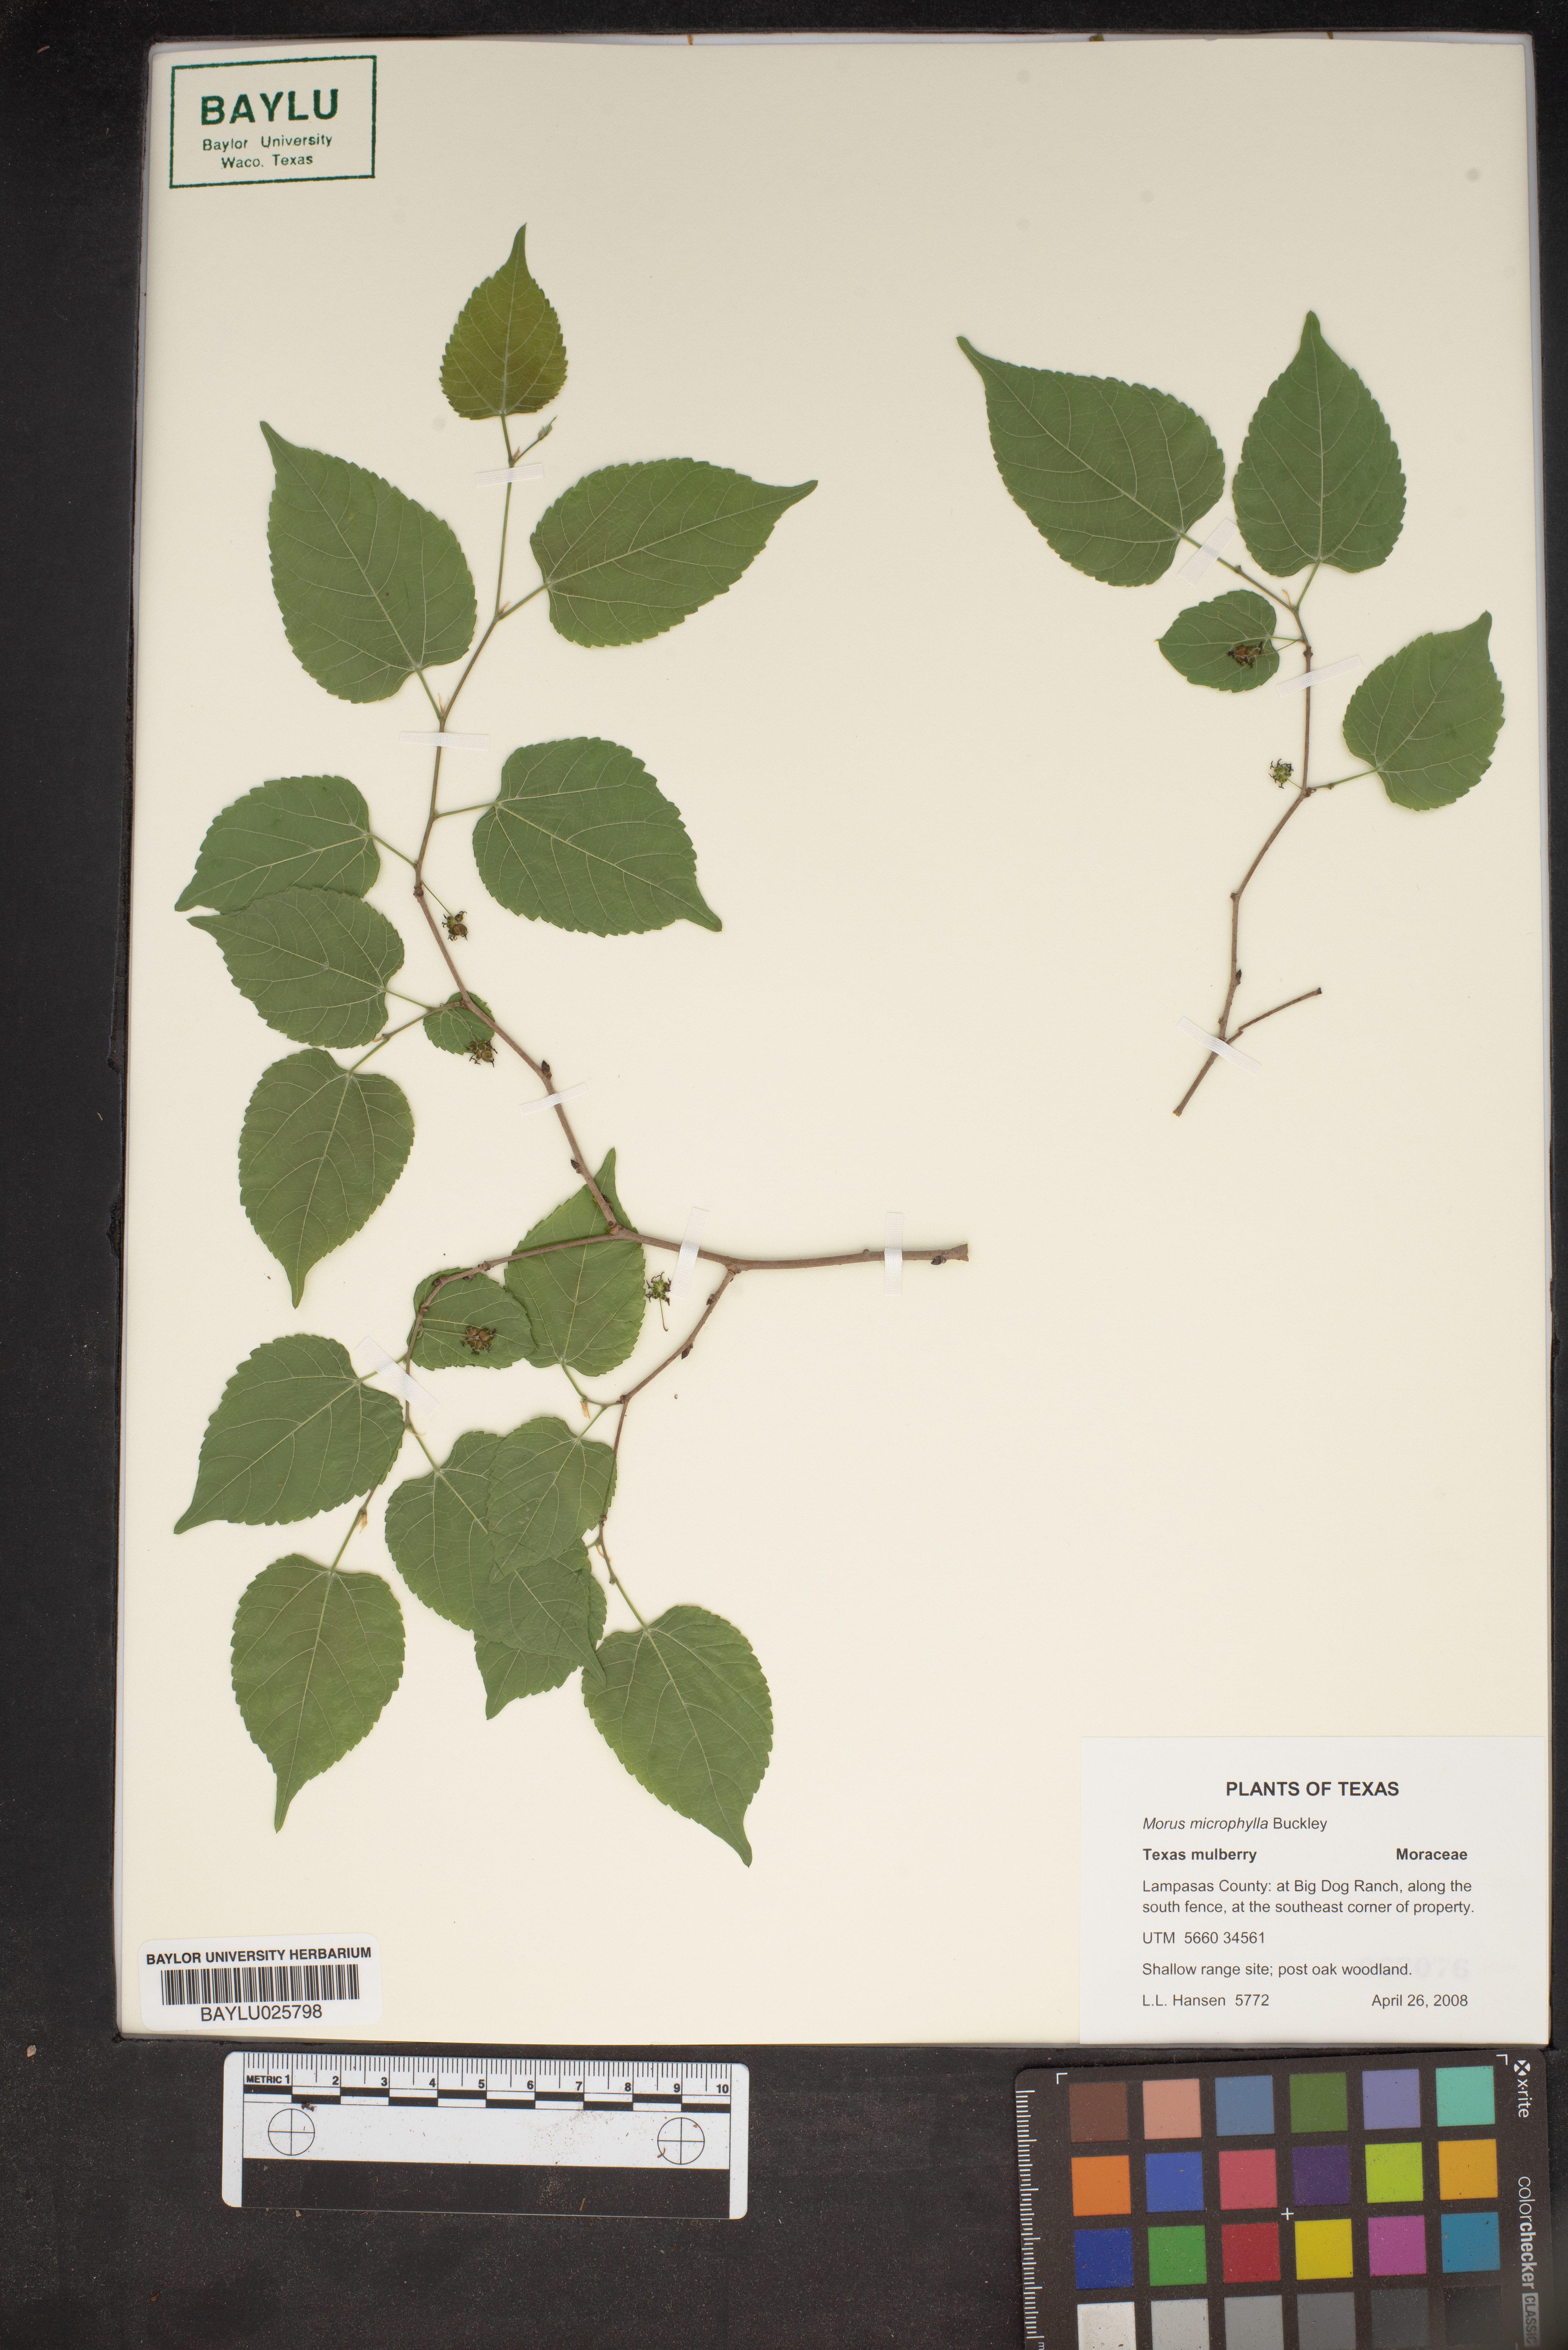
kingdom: Plantae
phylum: Tracheophyta
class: Magnoliopsida
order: Rosales
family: Moraceae
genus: Morus
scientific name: Morus microphylla
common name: Mexican mulberry
